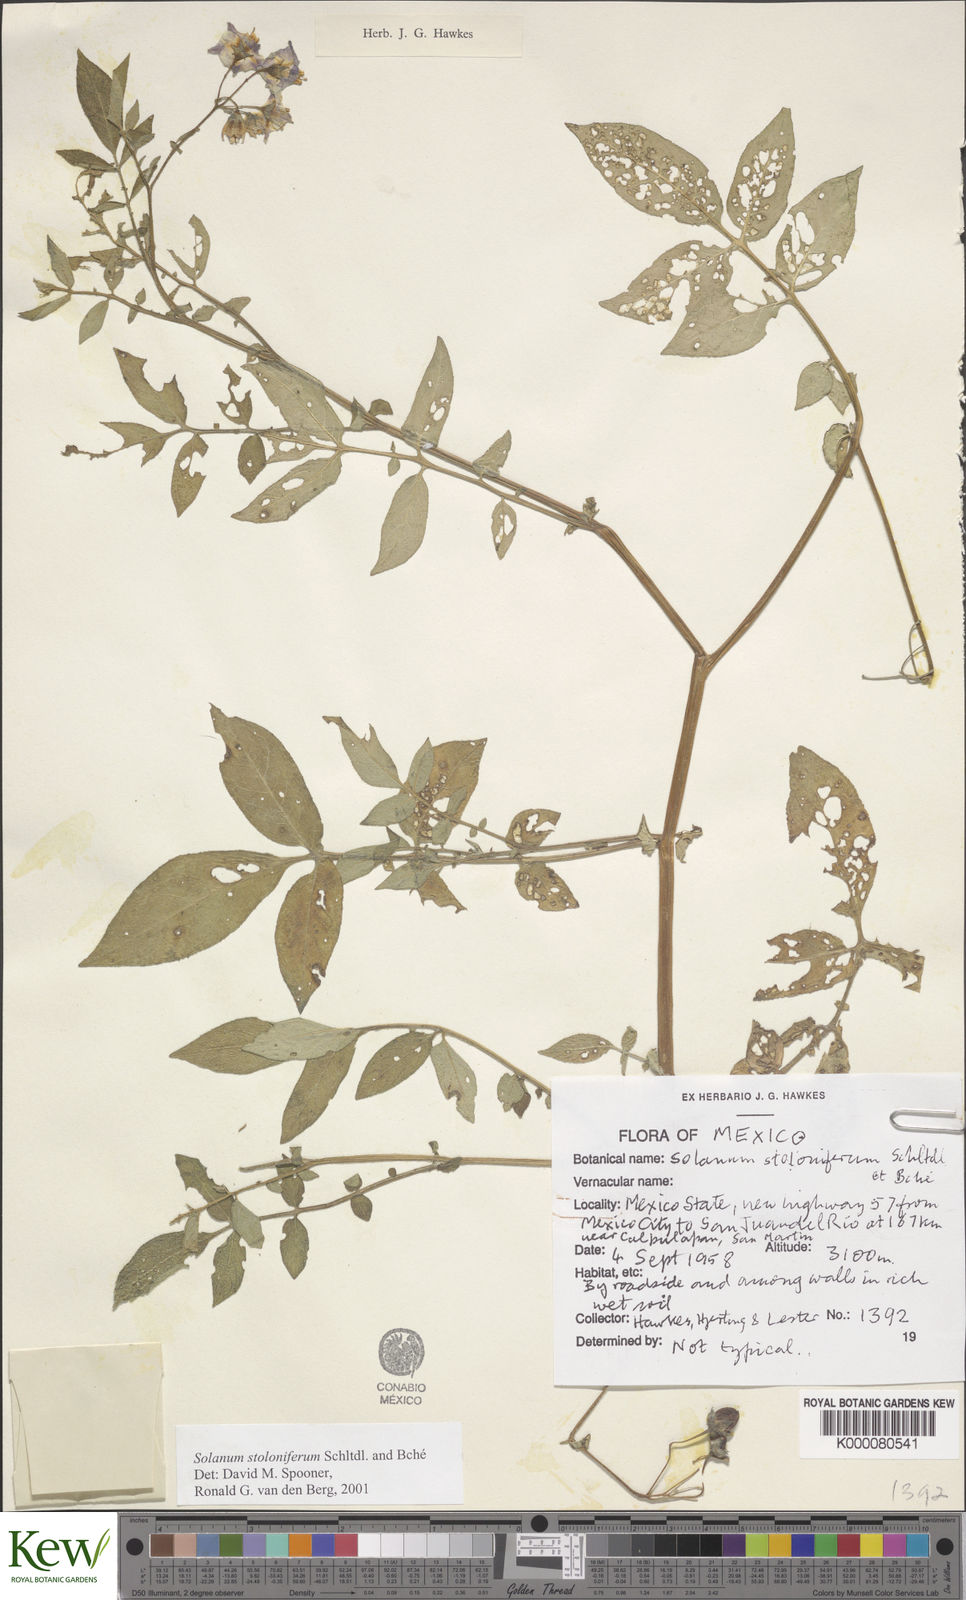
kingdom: Plantae
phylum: Tracheophyta
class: Magnoliopsida
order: Solanales
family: Solanaceae
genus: Solanum
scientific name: Solanum stoloniferum
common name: Fendler's nighshade
